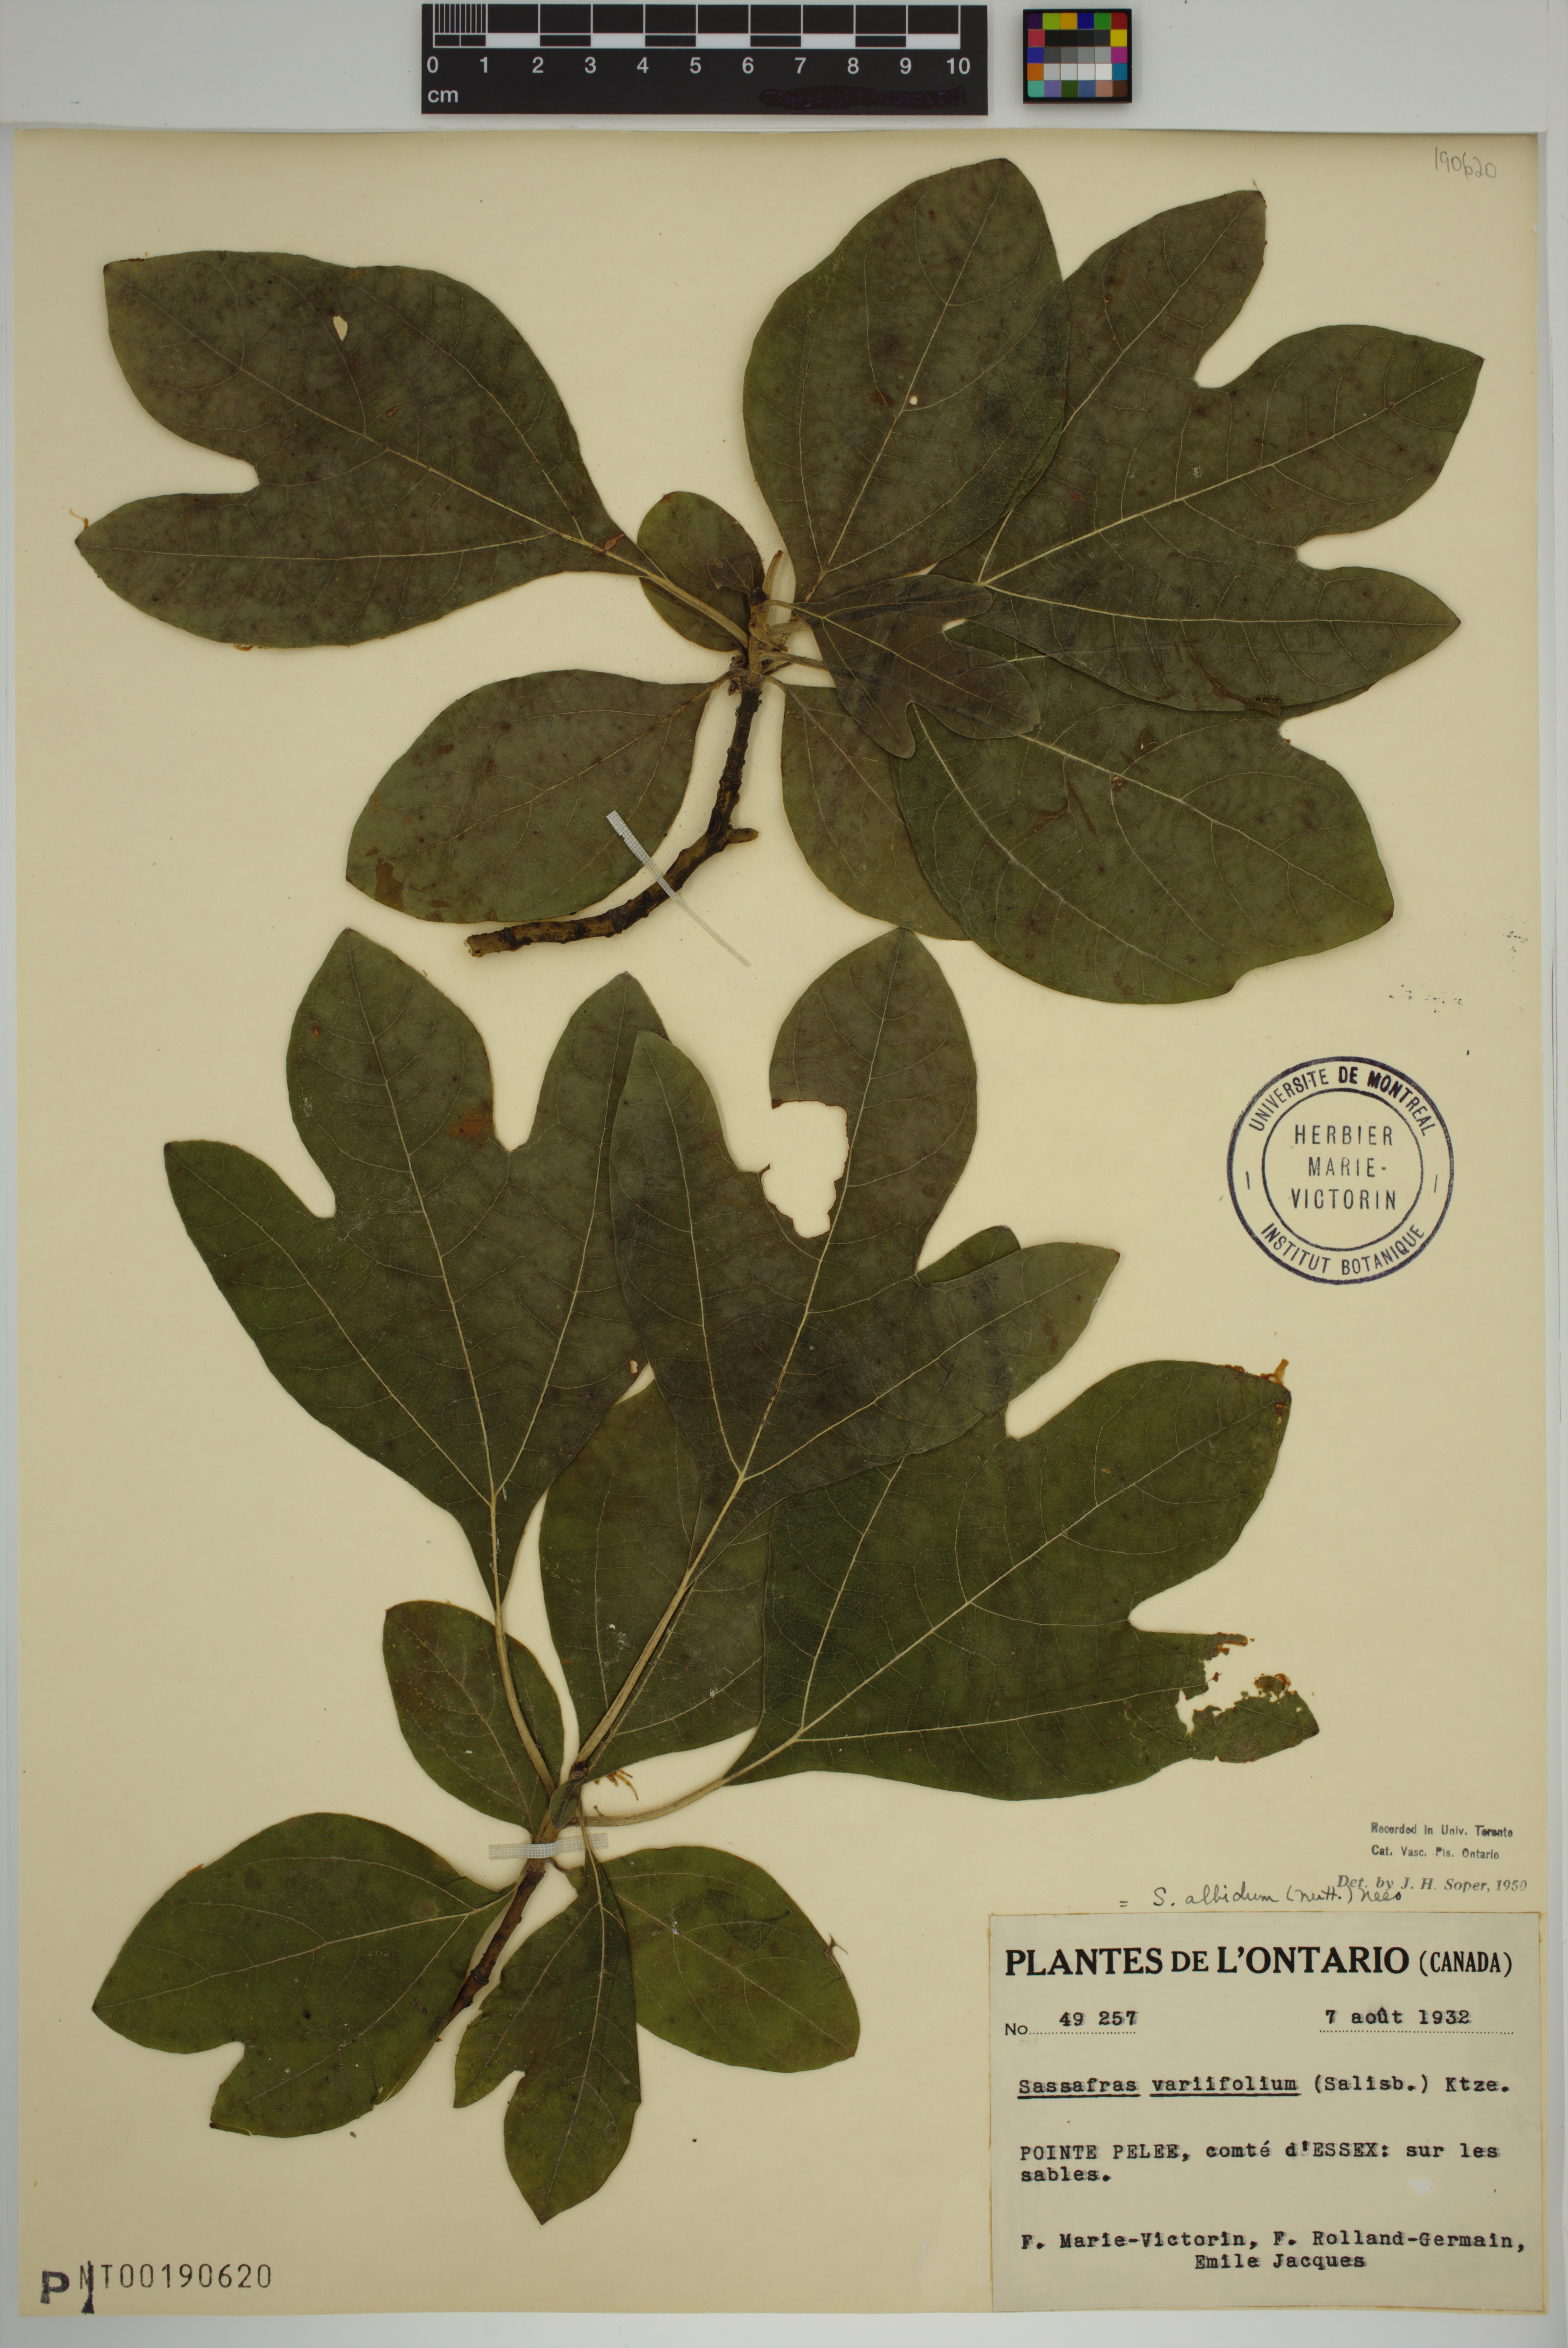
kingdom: Plantae
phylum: Tracheophyta
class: Magnoliopsida
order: Laurales
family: Lauraceae
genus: Sassafras
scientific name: Sassafras albidum
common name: Sassafras
